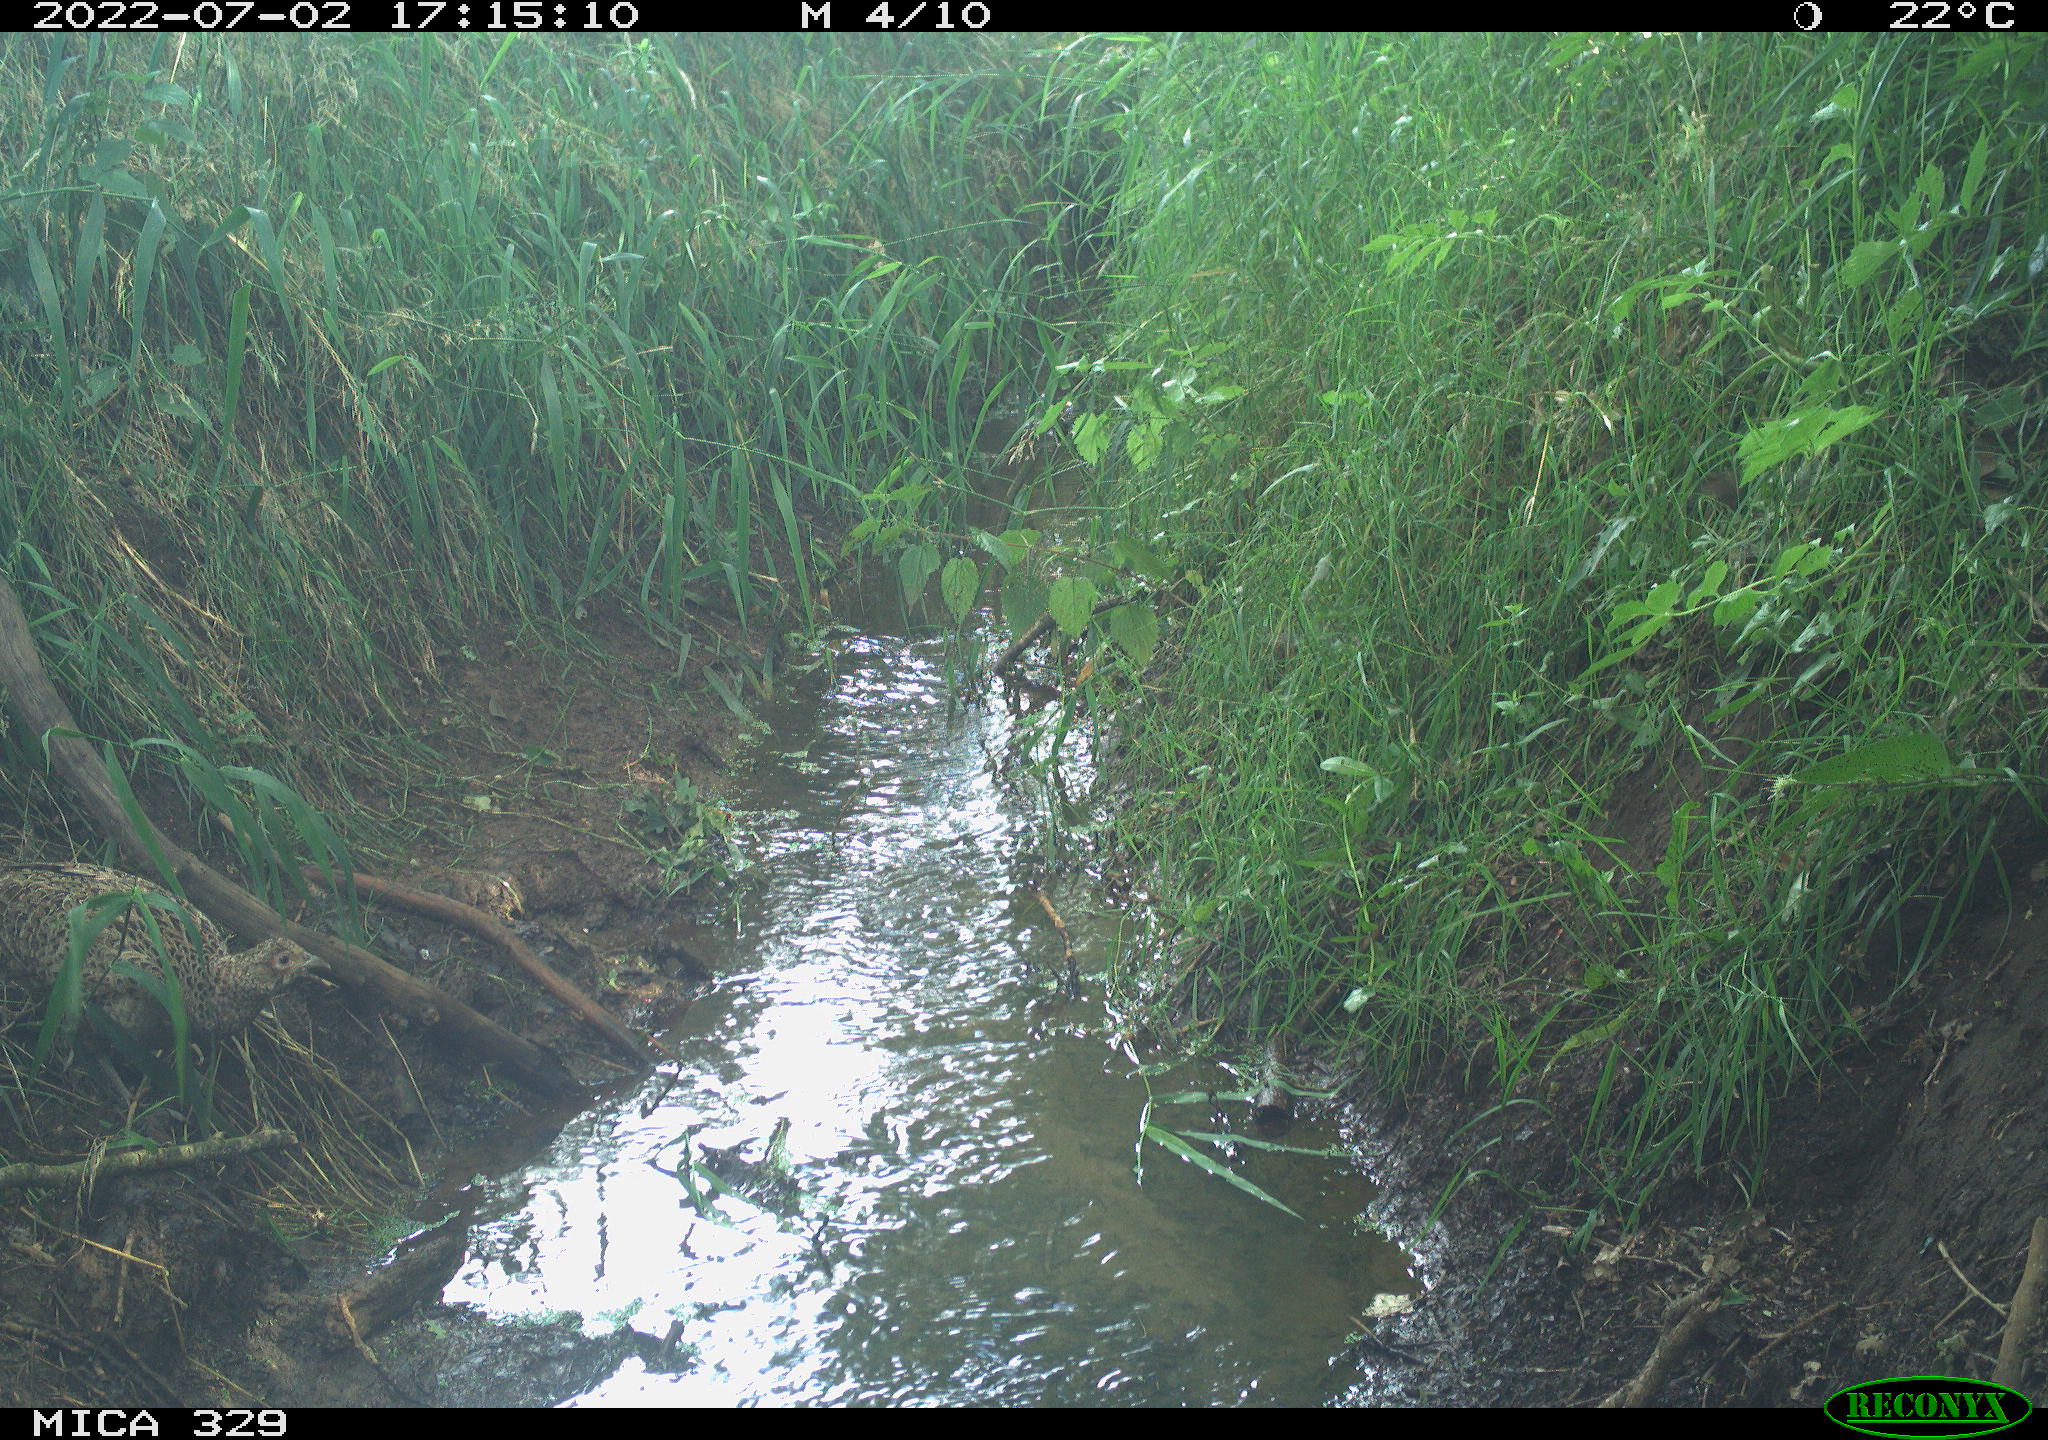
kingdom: Animalia
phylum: Chordata
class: Aves
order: Galliformes
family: Phasianidae
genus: Phasianus
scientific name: Phasianus colchicus
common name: Common pheasant
